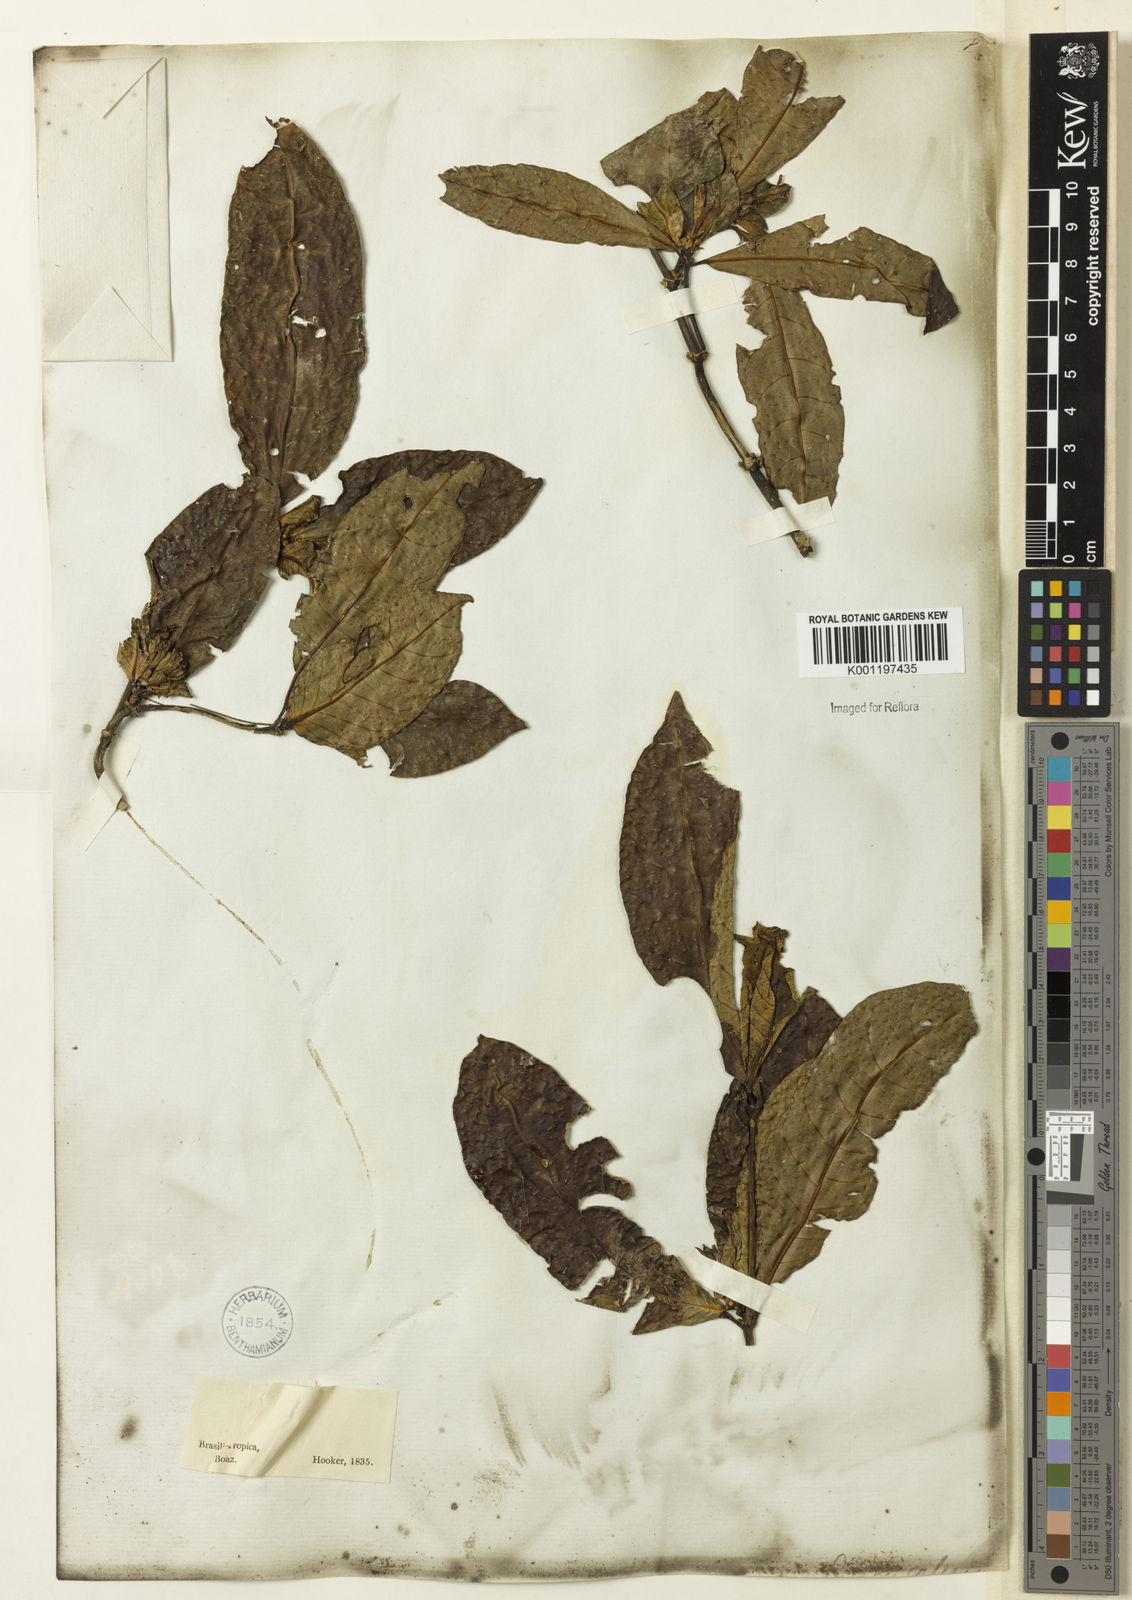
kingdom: Plantae
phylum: Tracheophyta
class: Magnoliopsida
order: Gentianales
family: Rubiaceae
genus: Psychotria
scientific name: Psychotria
